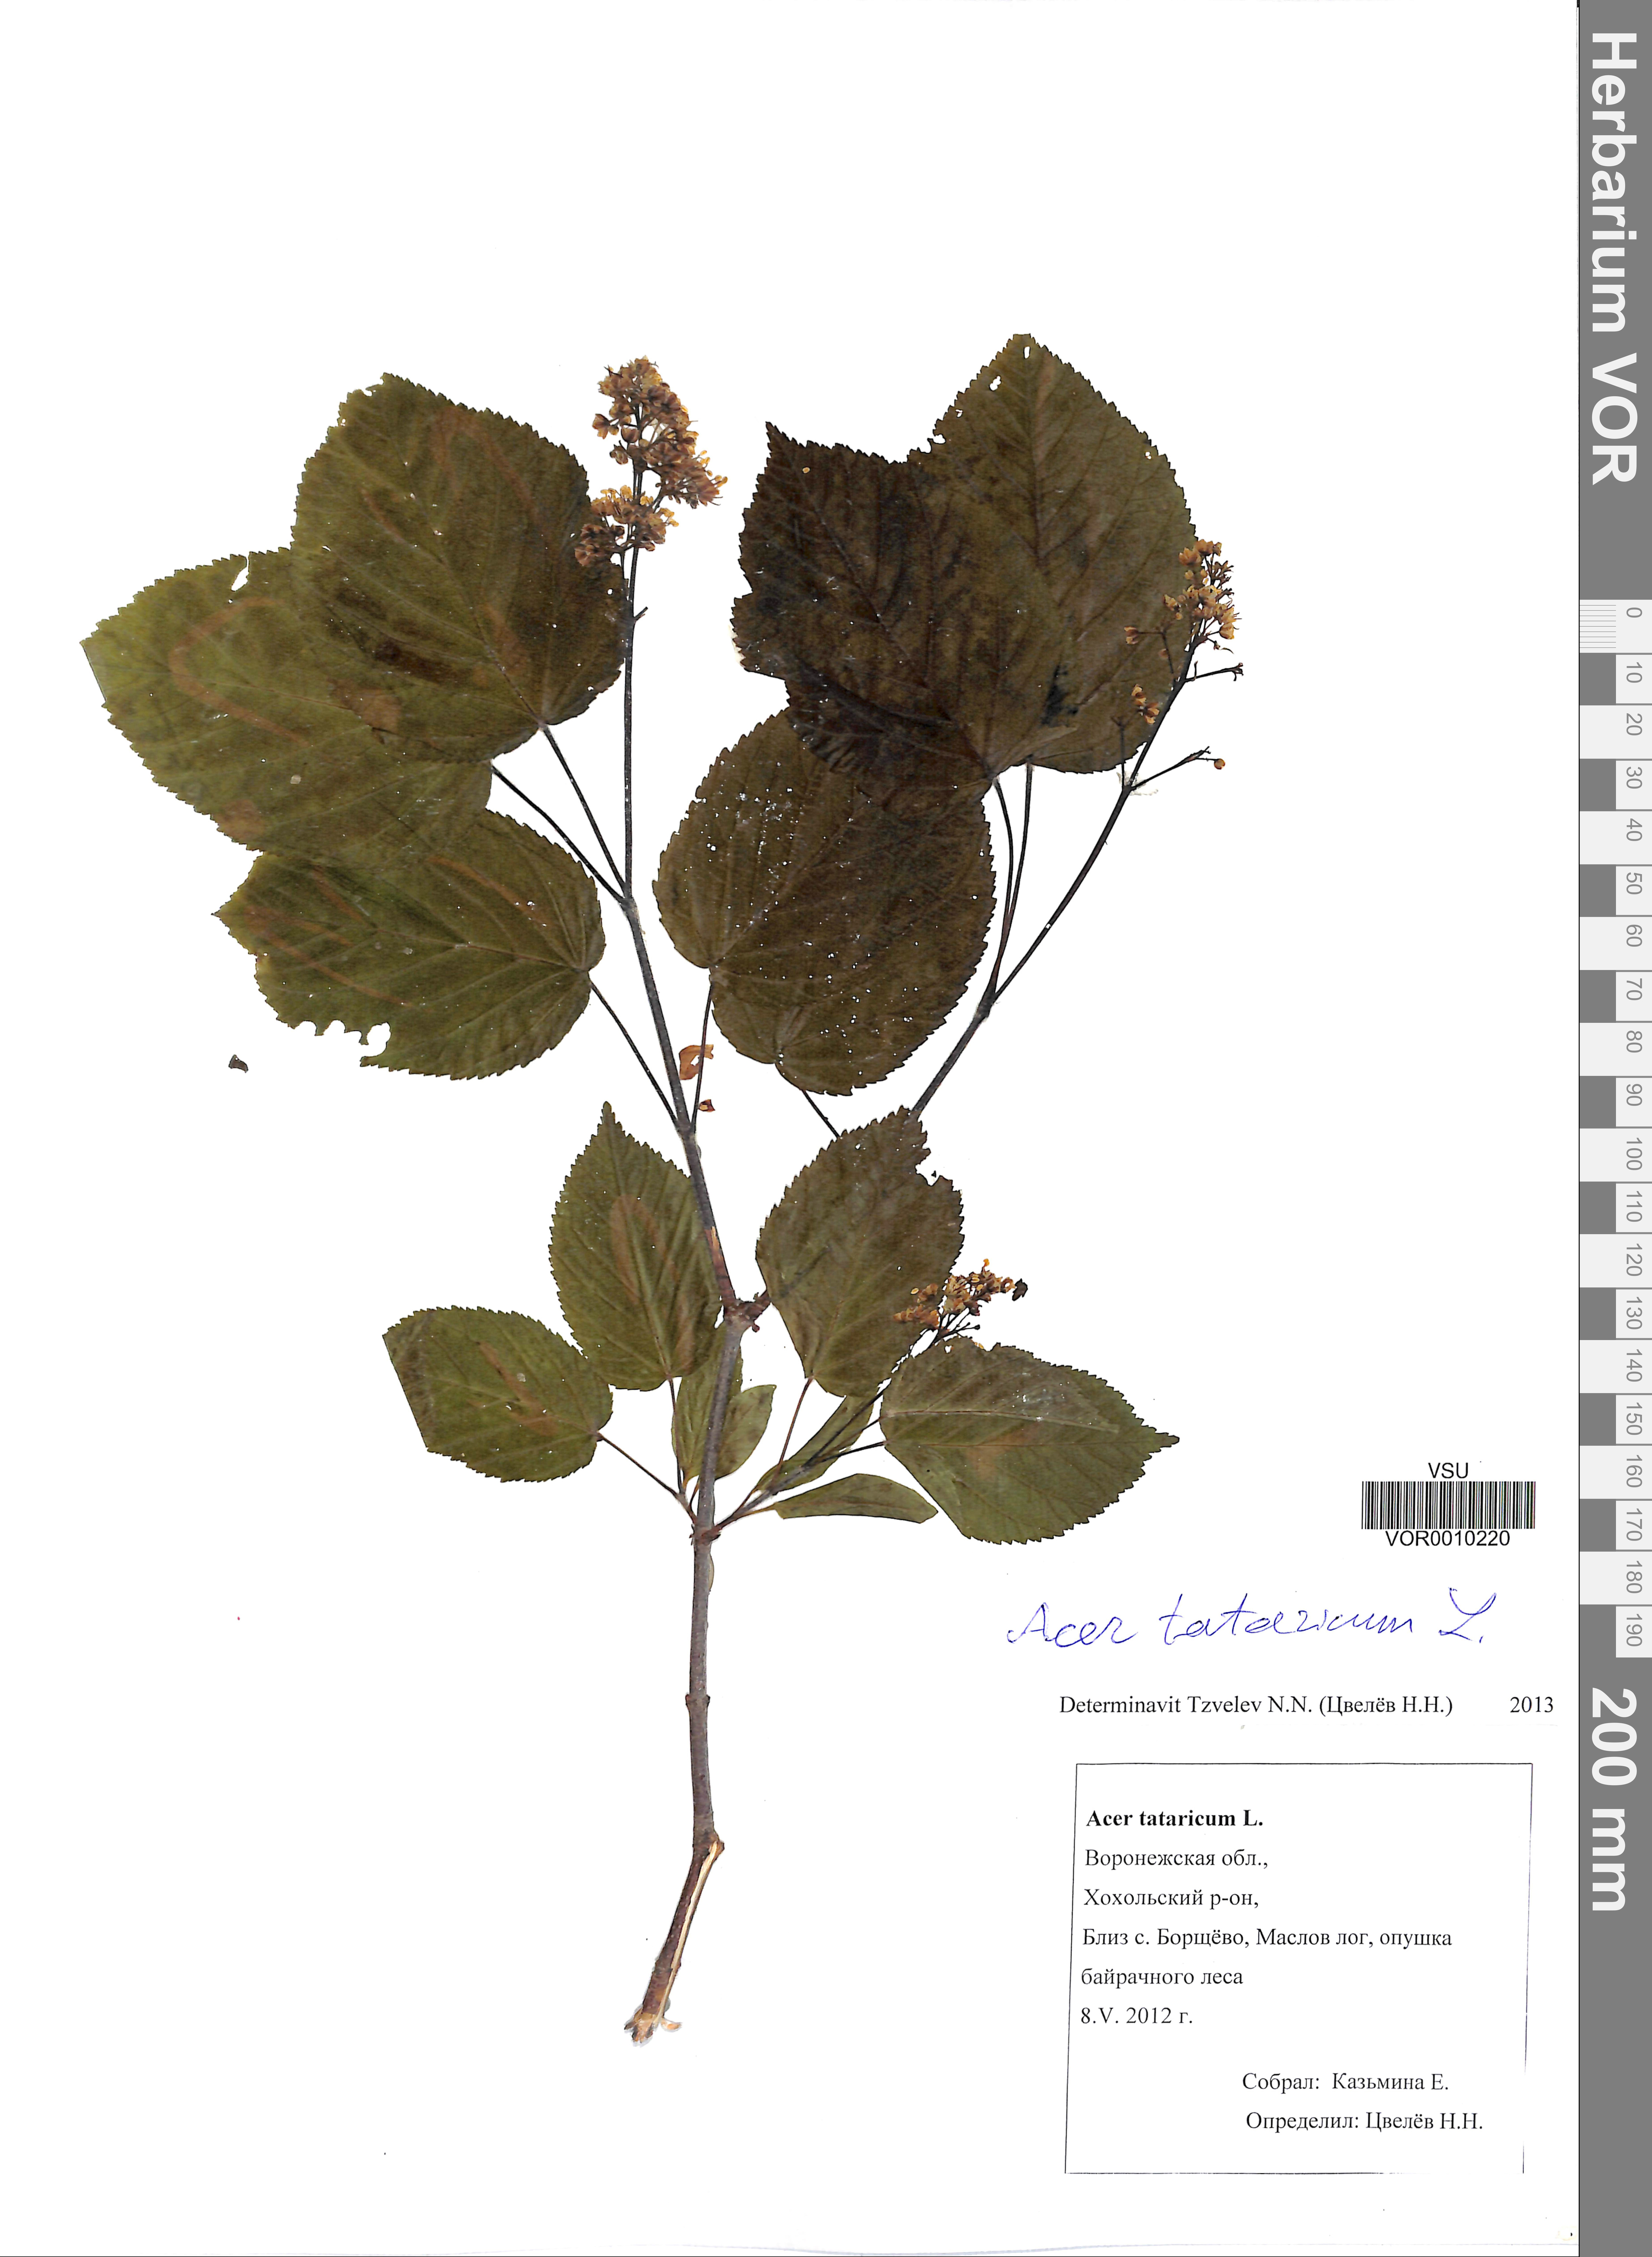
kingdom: Plantae
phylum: Tracheophyta
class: Magnoliopsida
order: Sapindales
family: Sapindaceae
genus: Acer
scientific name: Acer tataricum
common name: Tartar maple
